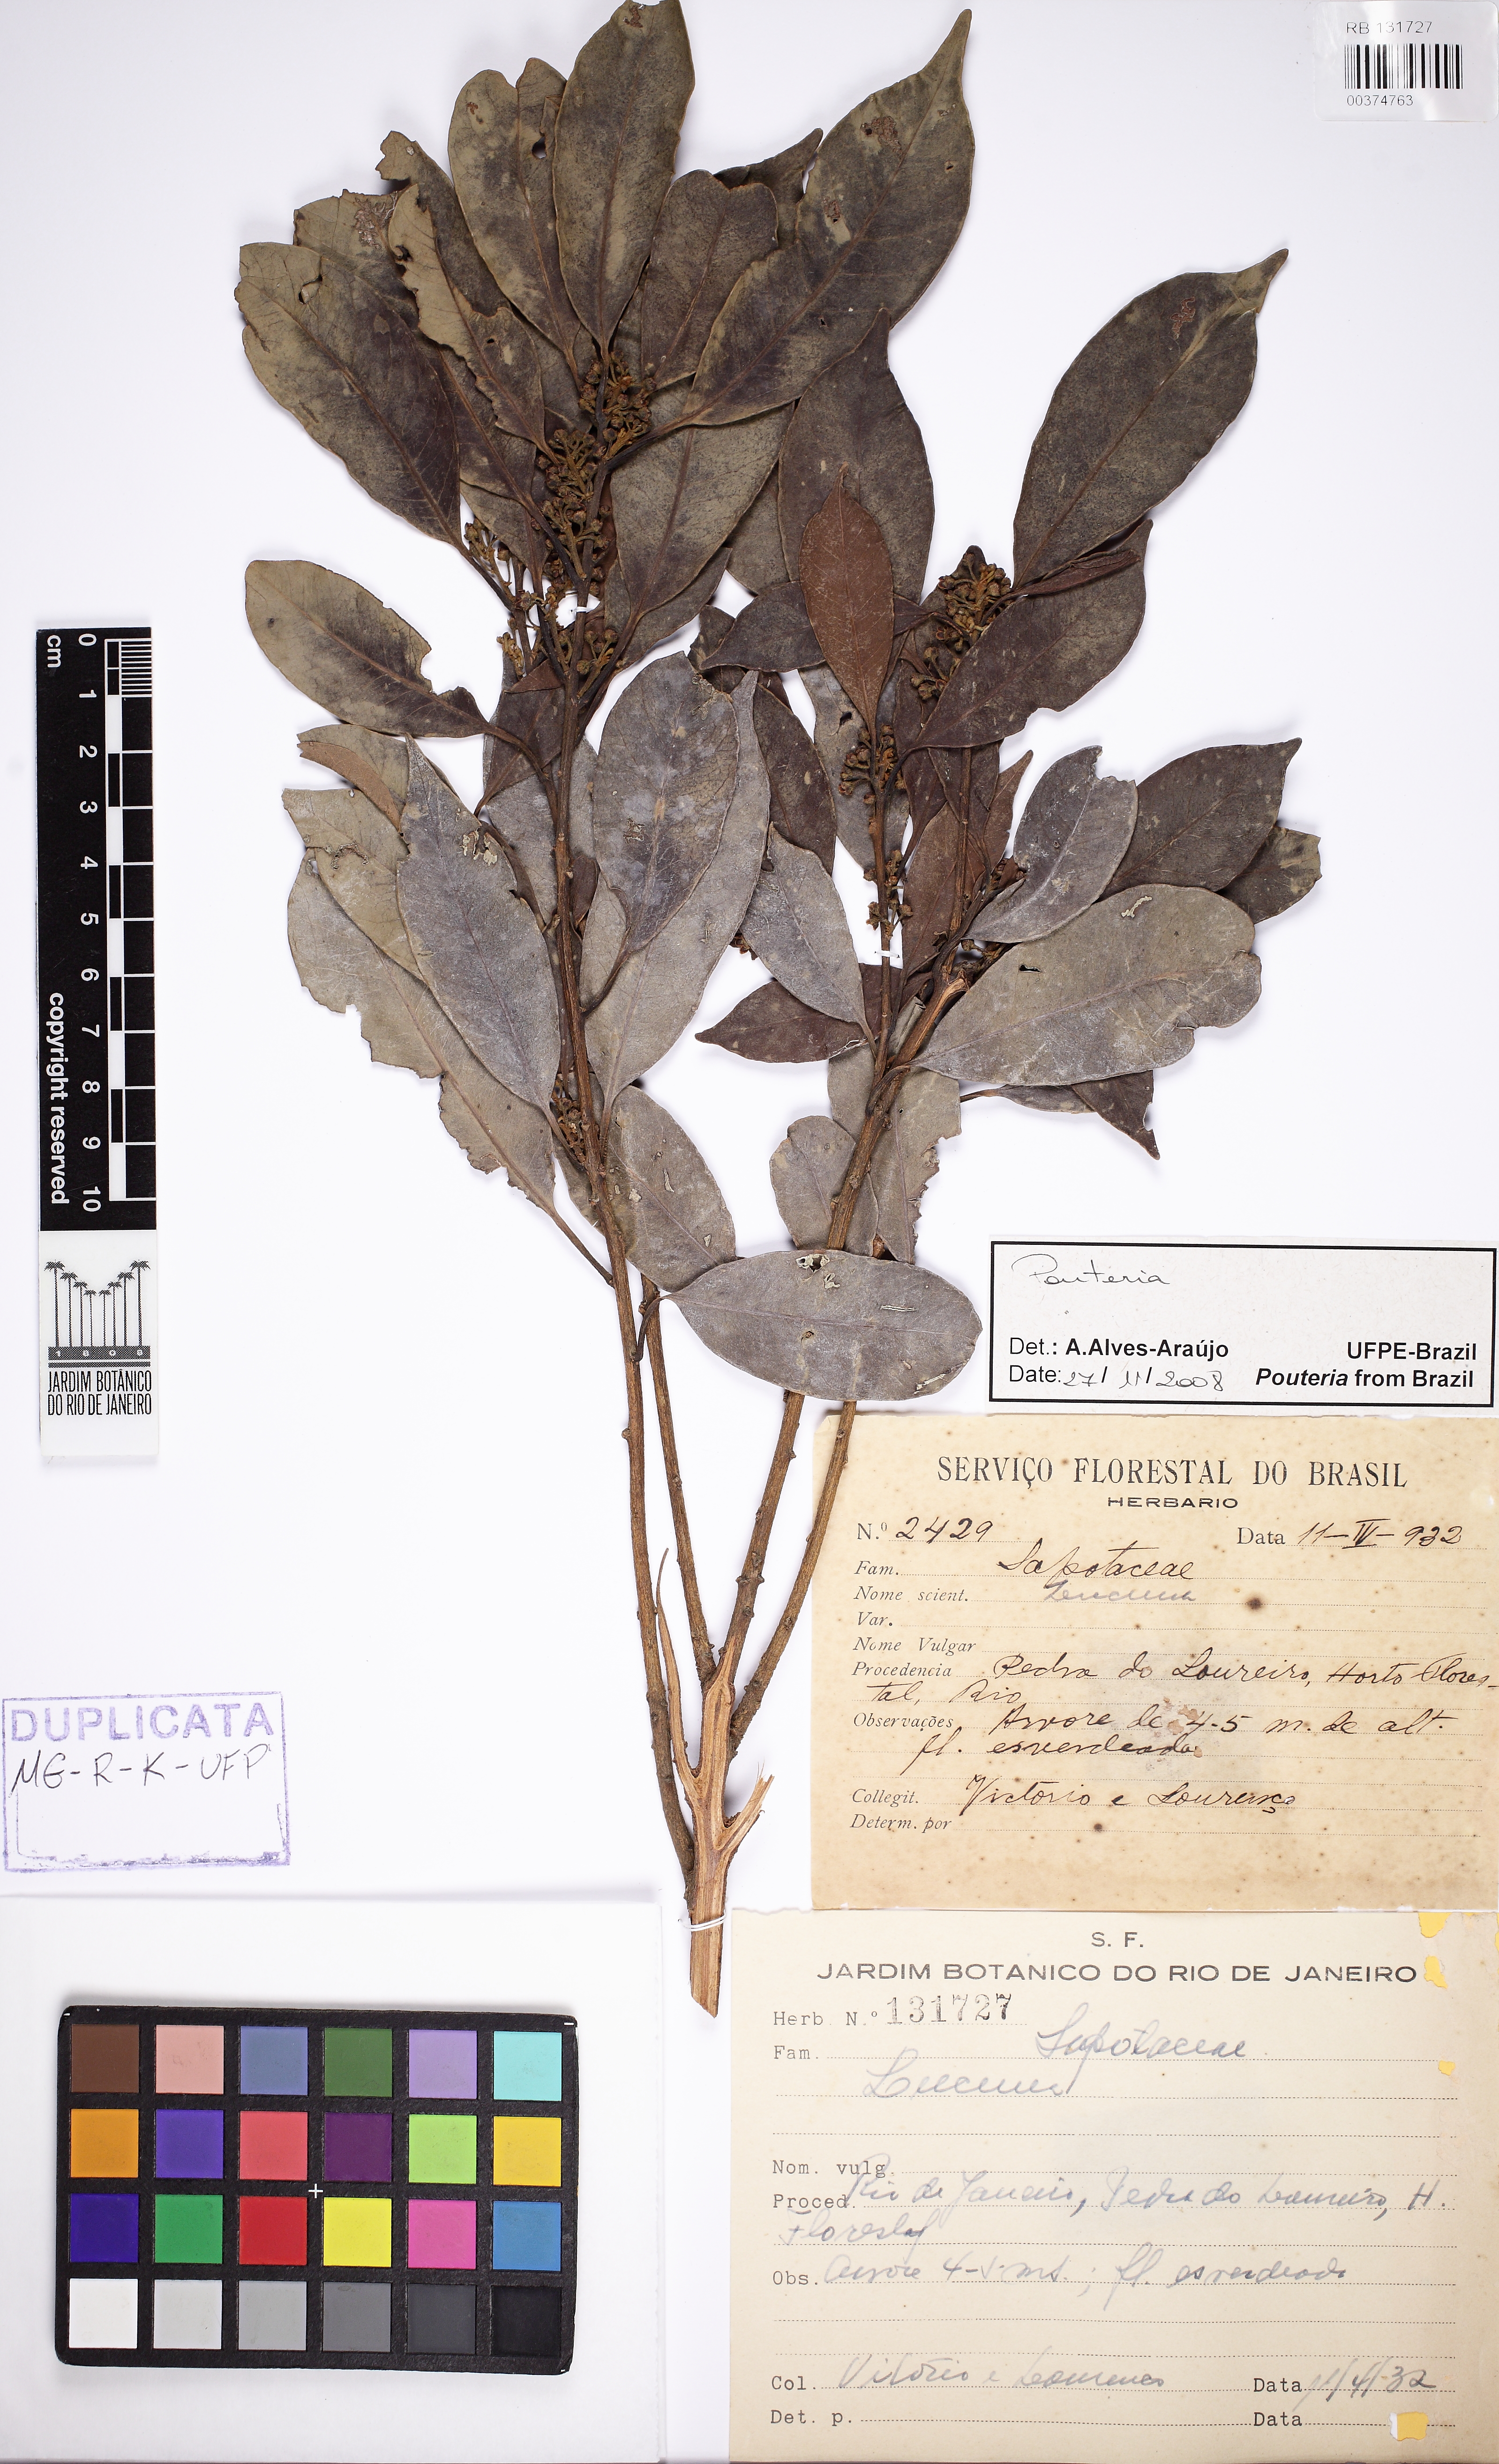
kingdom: Plantae
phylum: Tracheophyta
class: Magnoliopsida
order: Ericales
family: Sapotaceae
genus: Pradosia
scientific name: Pradosia kuhlmannii
